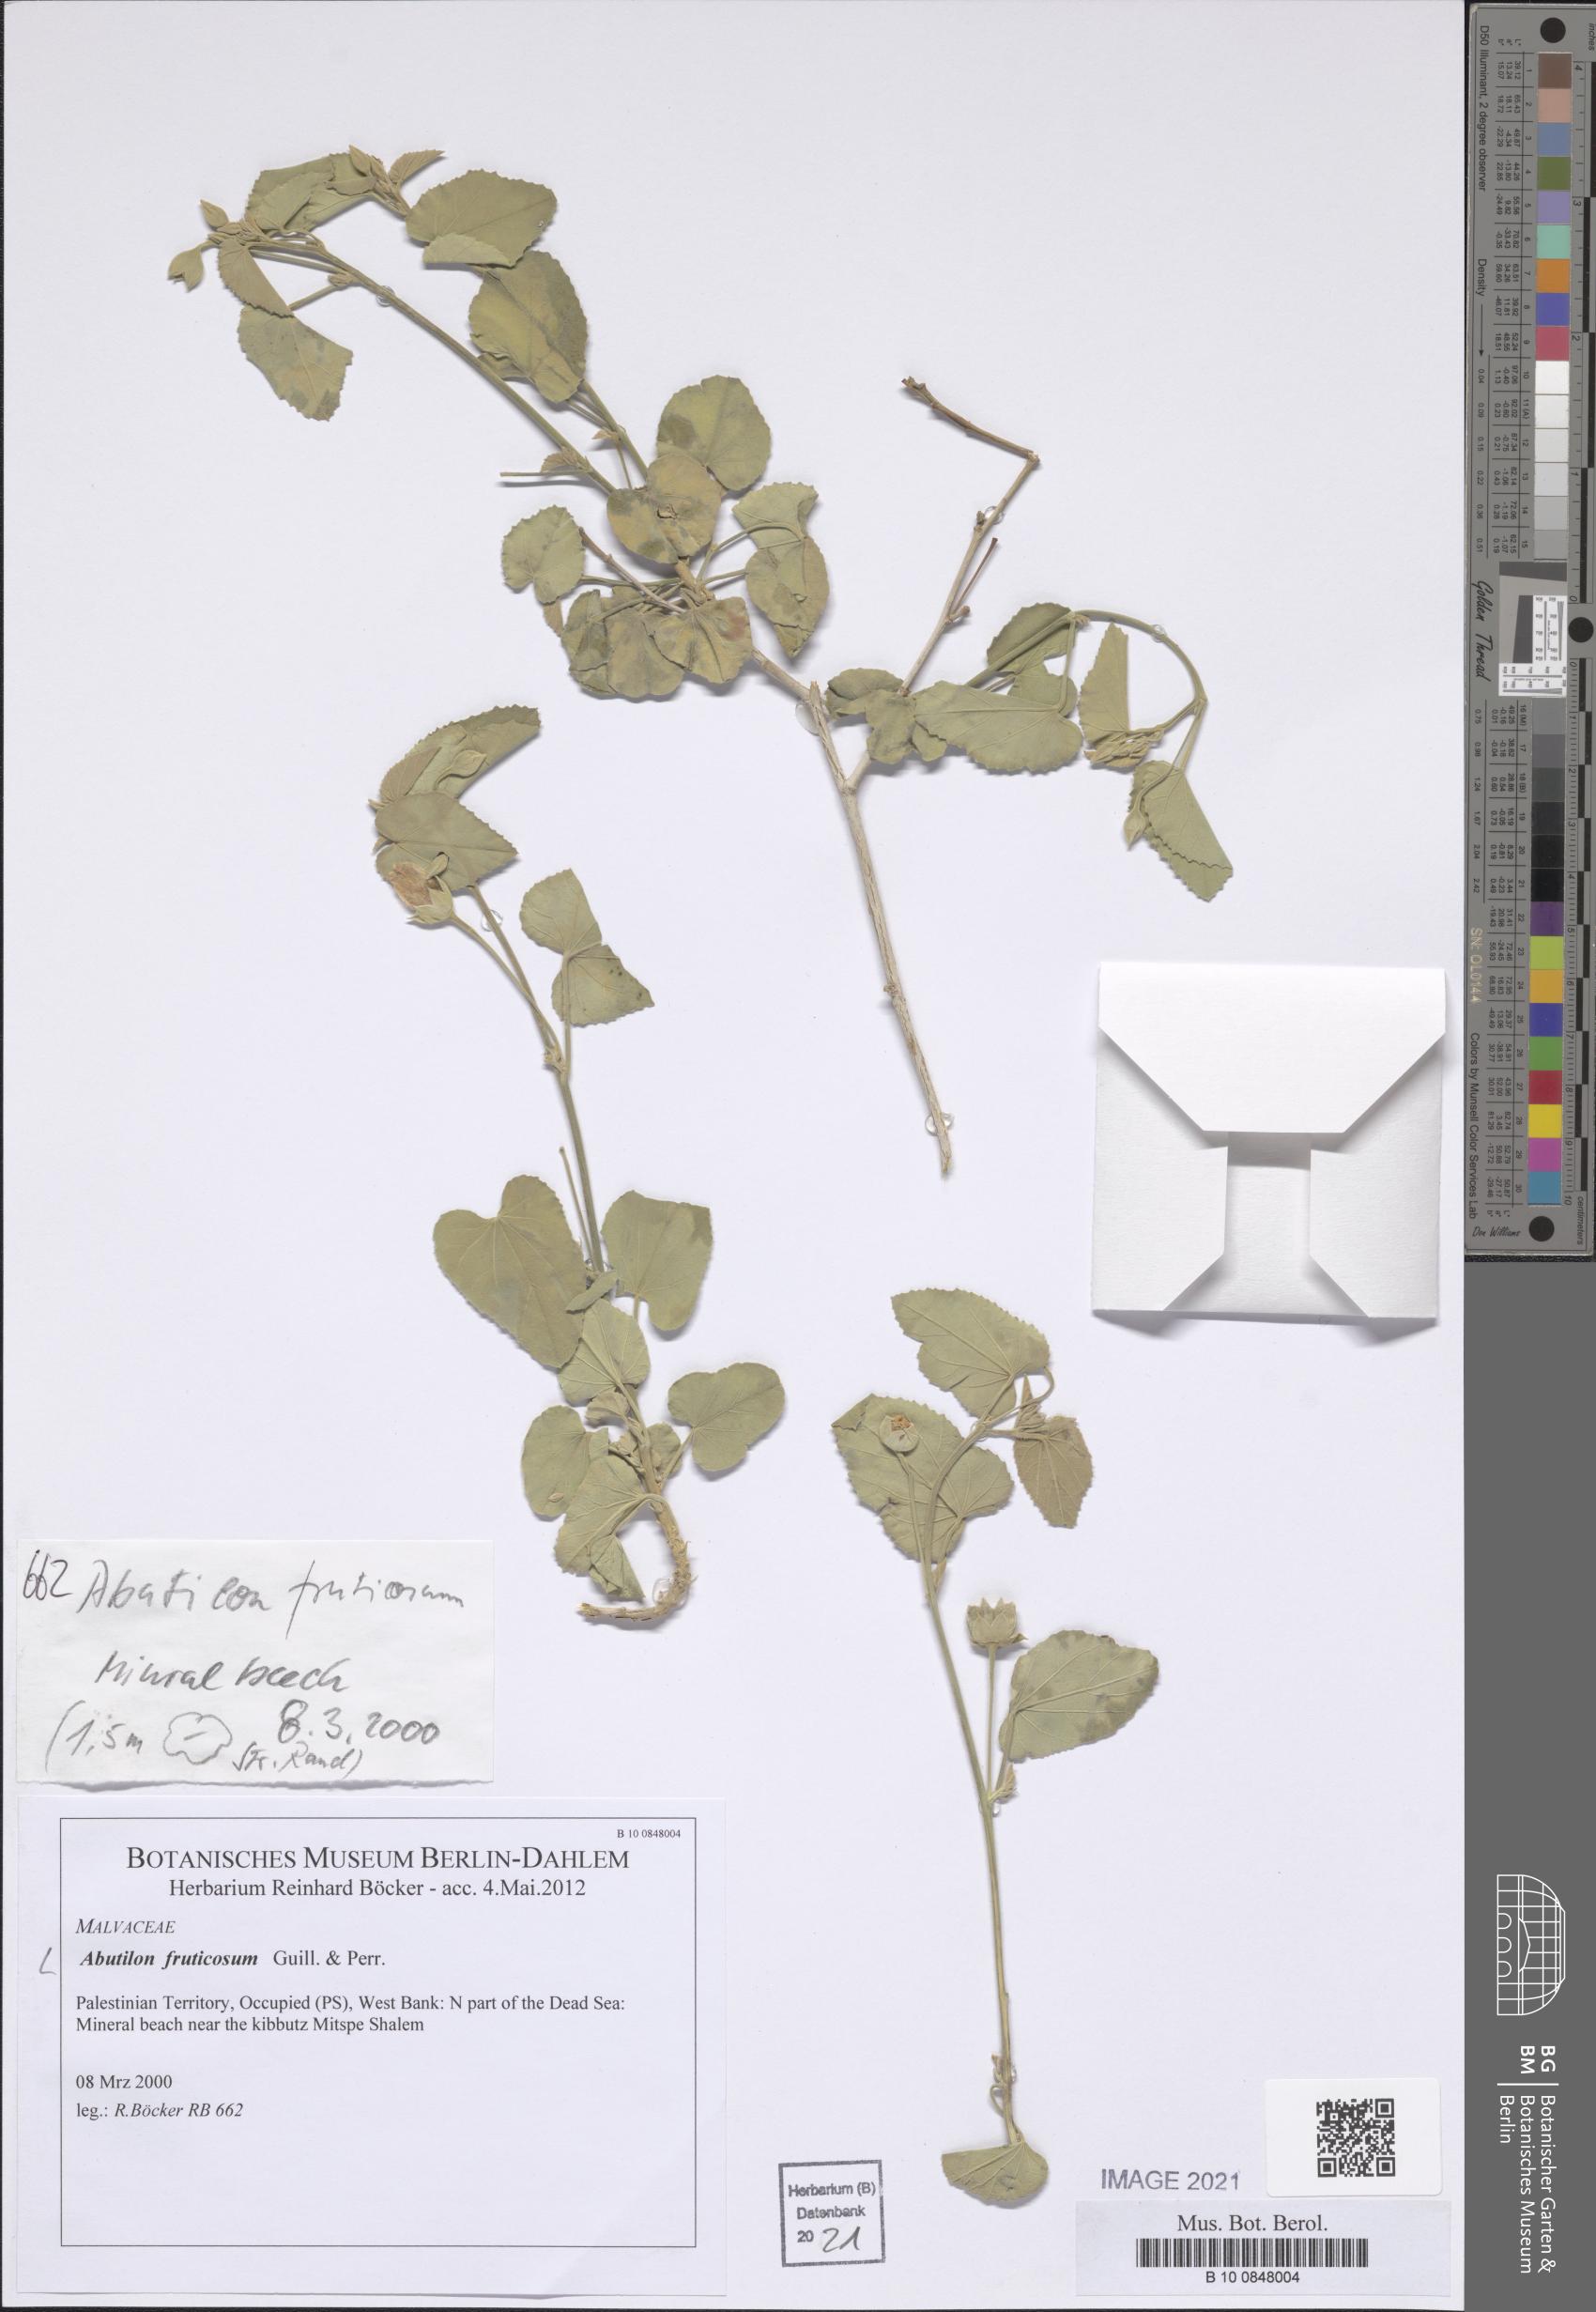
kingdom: Plantae
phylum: Tracheophyta
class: Magnoliopsida
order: Malvales
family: Malvaceae
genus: Abutilon
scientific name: Abutilon fruticosum
